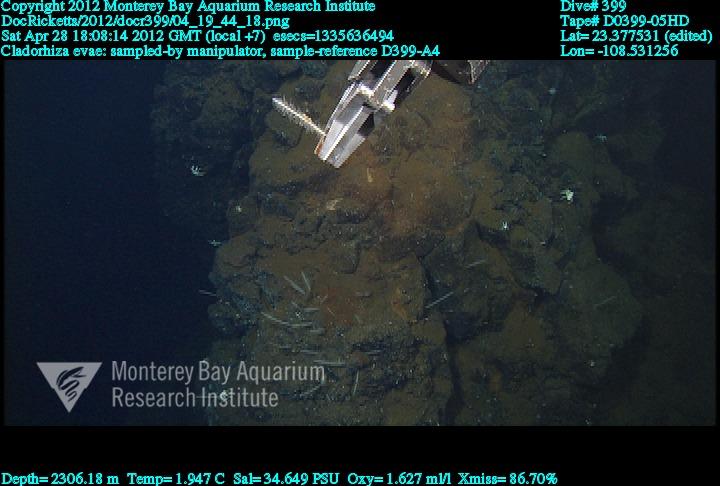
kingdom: Animalia
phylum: Porifera
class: Demospongiae
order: Poecilosclerida
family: Cladorhizidae
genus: Nullarbora
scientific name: Nullarbora evae
